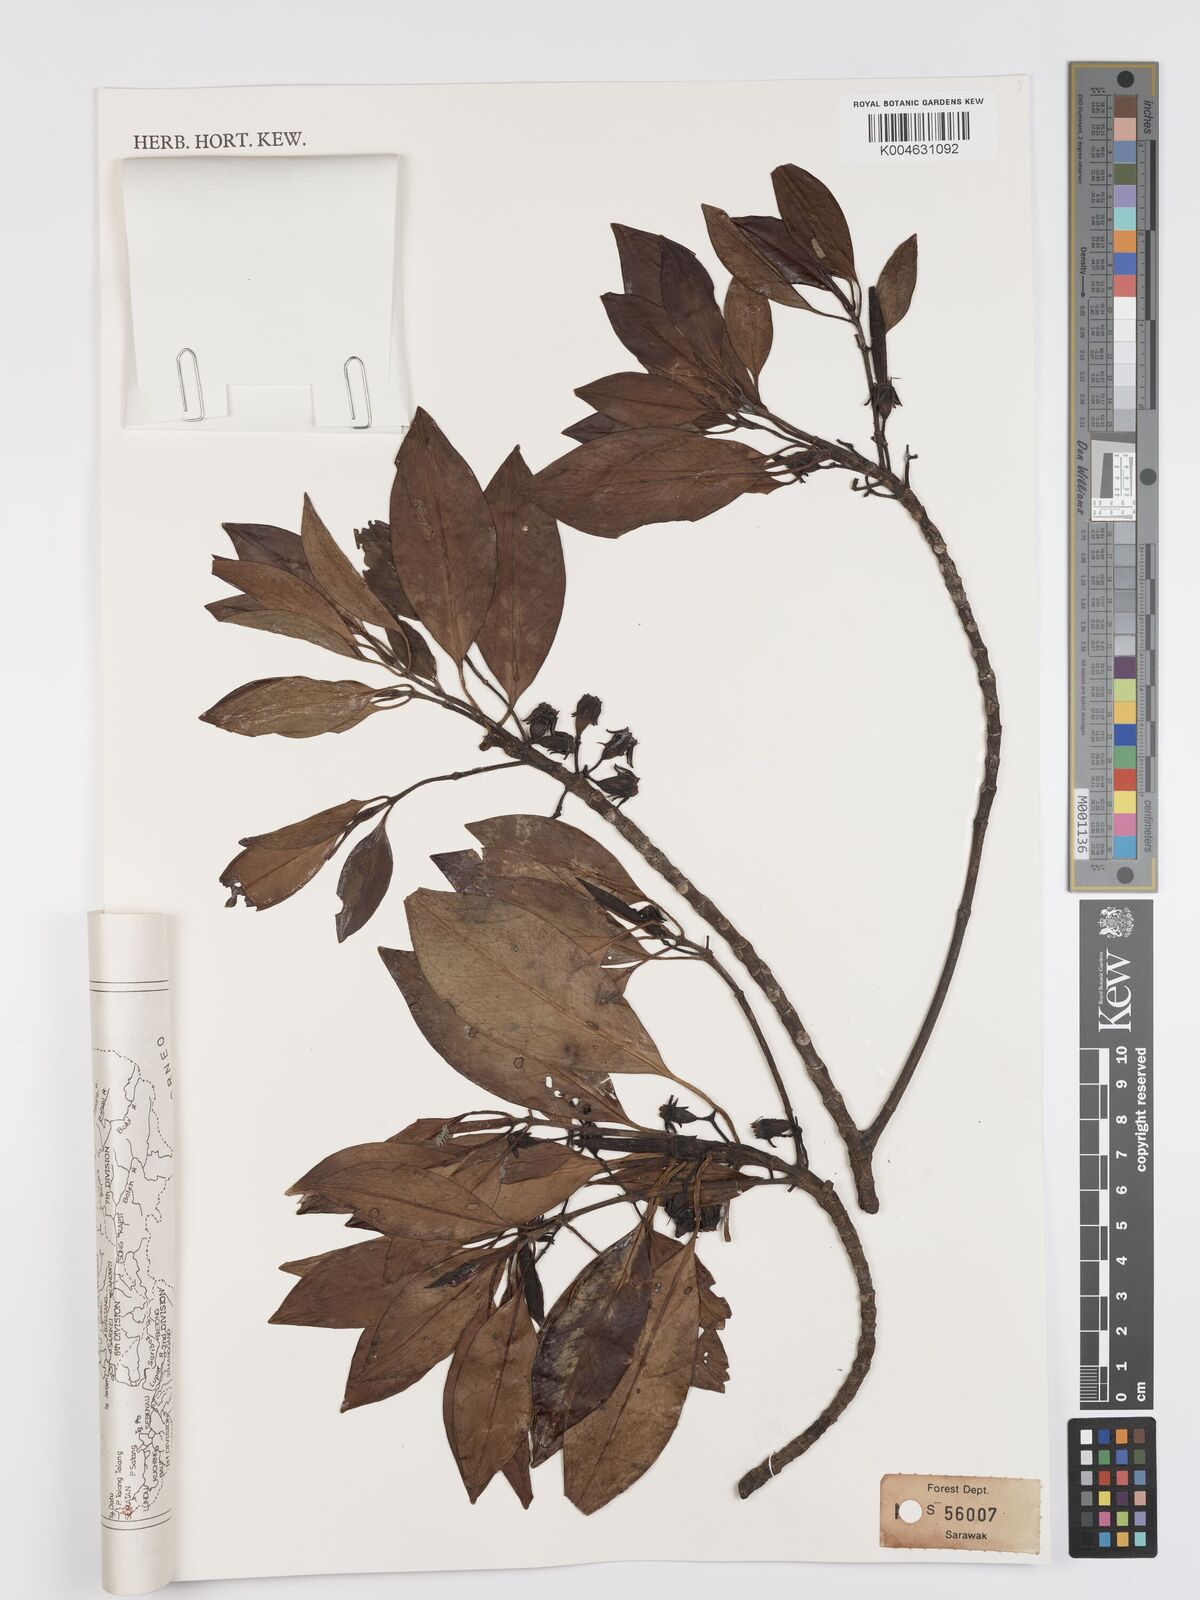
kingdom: Plantae
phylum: Tracheophyta
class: Magnoliopsida
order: Malpighiales
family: Rhizophoraceae
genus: Bruguiera
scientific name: Bruguiera cylindrica
